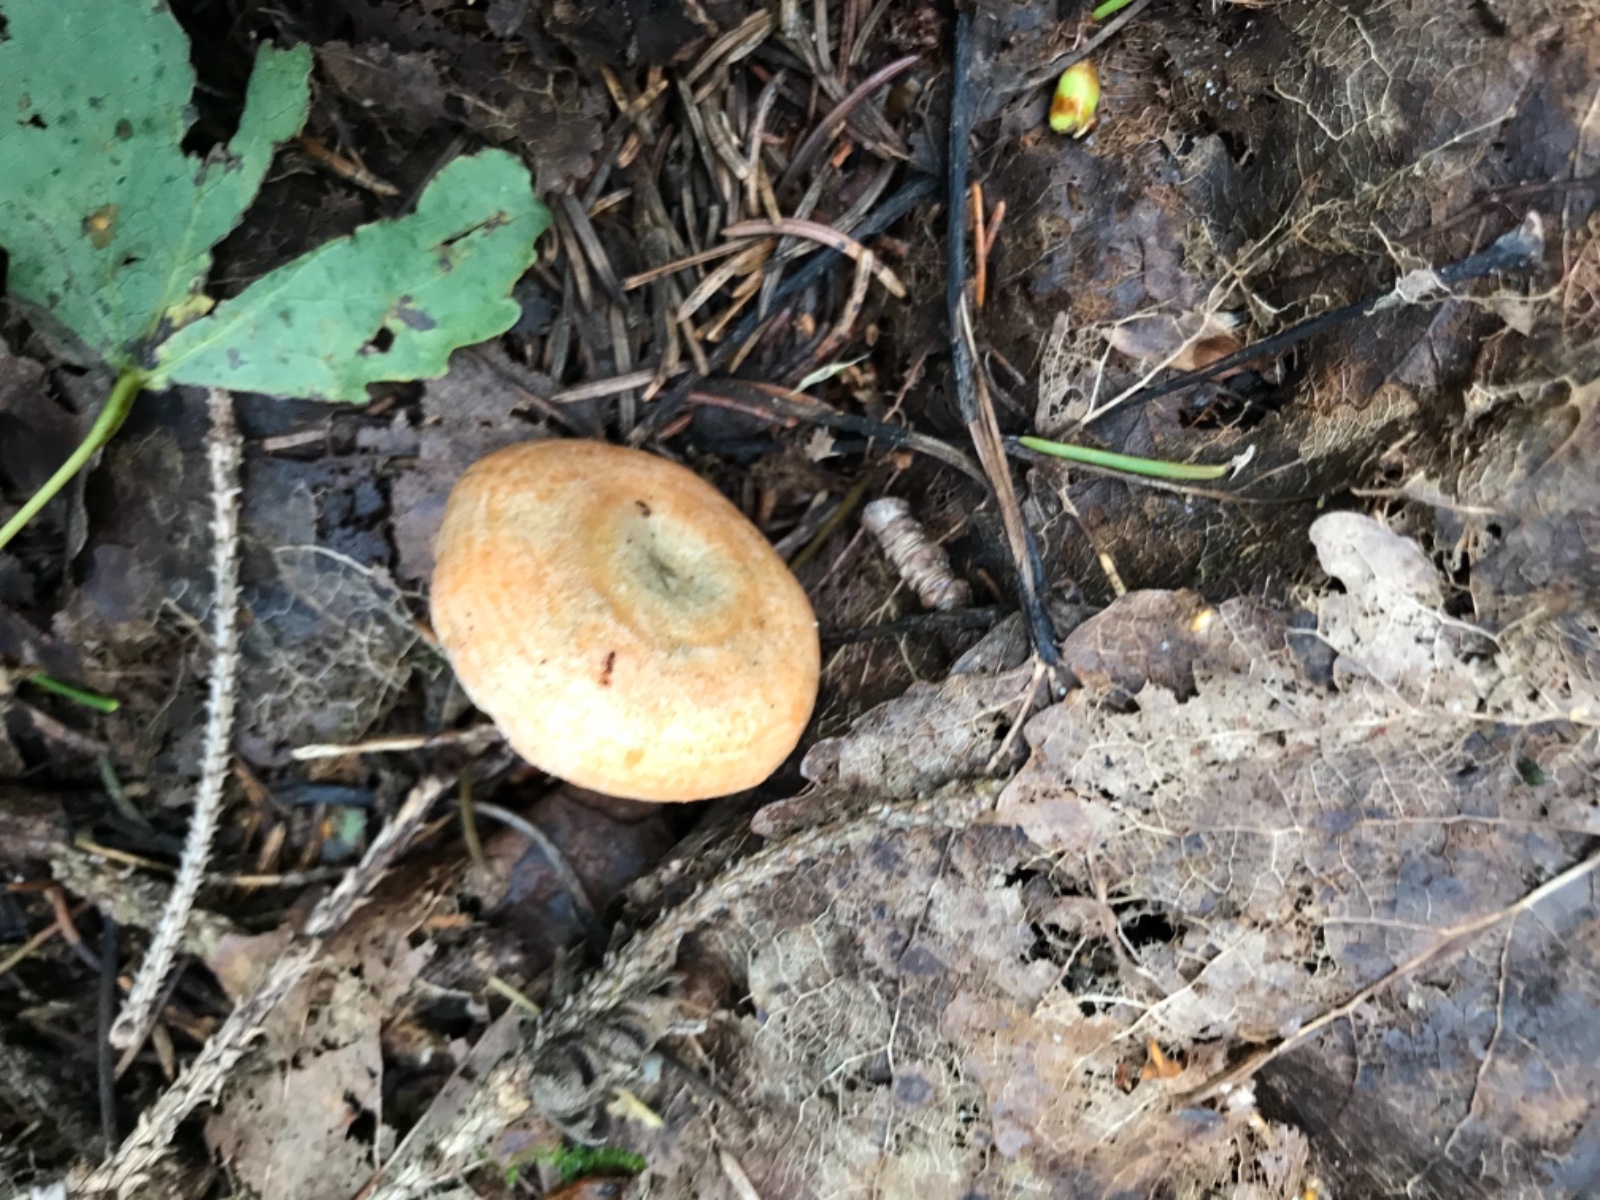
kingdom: Fungi
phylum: Basidiomycota
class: Agaricomycetes
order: Russulales
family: Russulaceae
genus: Lactarius
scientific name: Lactarius deterrimus
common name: gran-mælkehat
